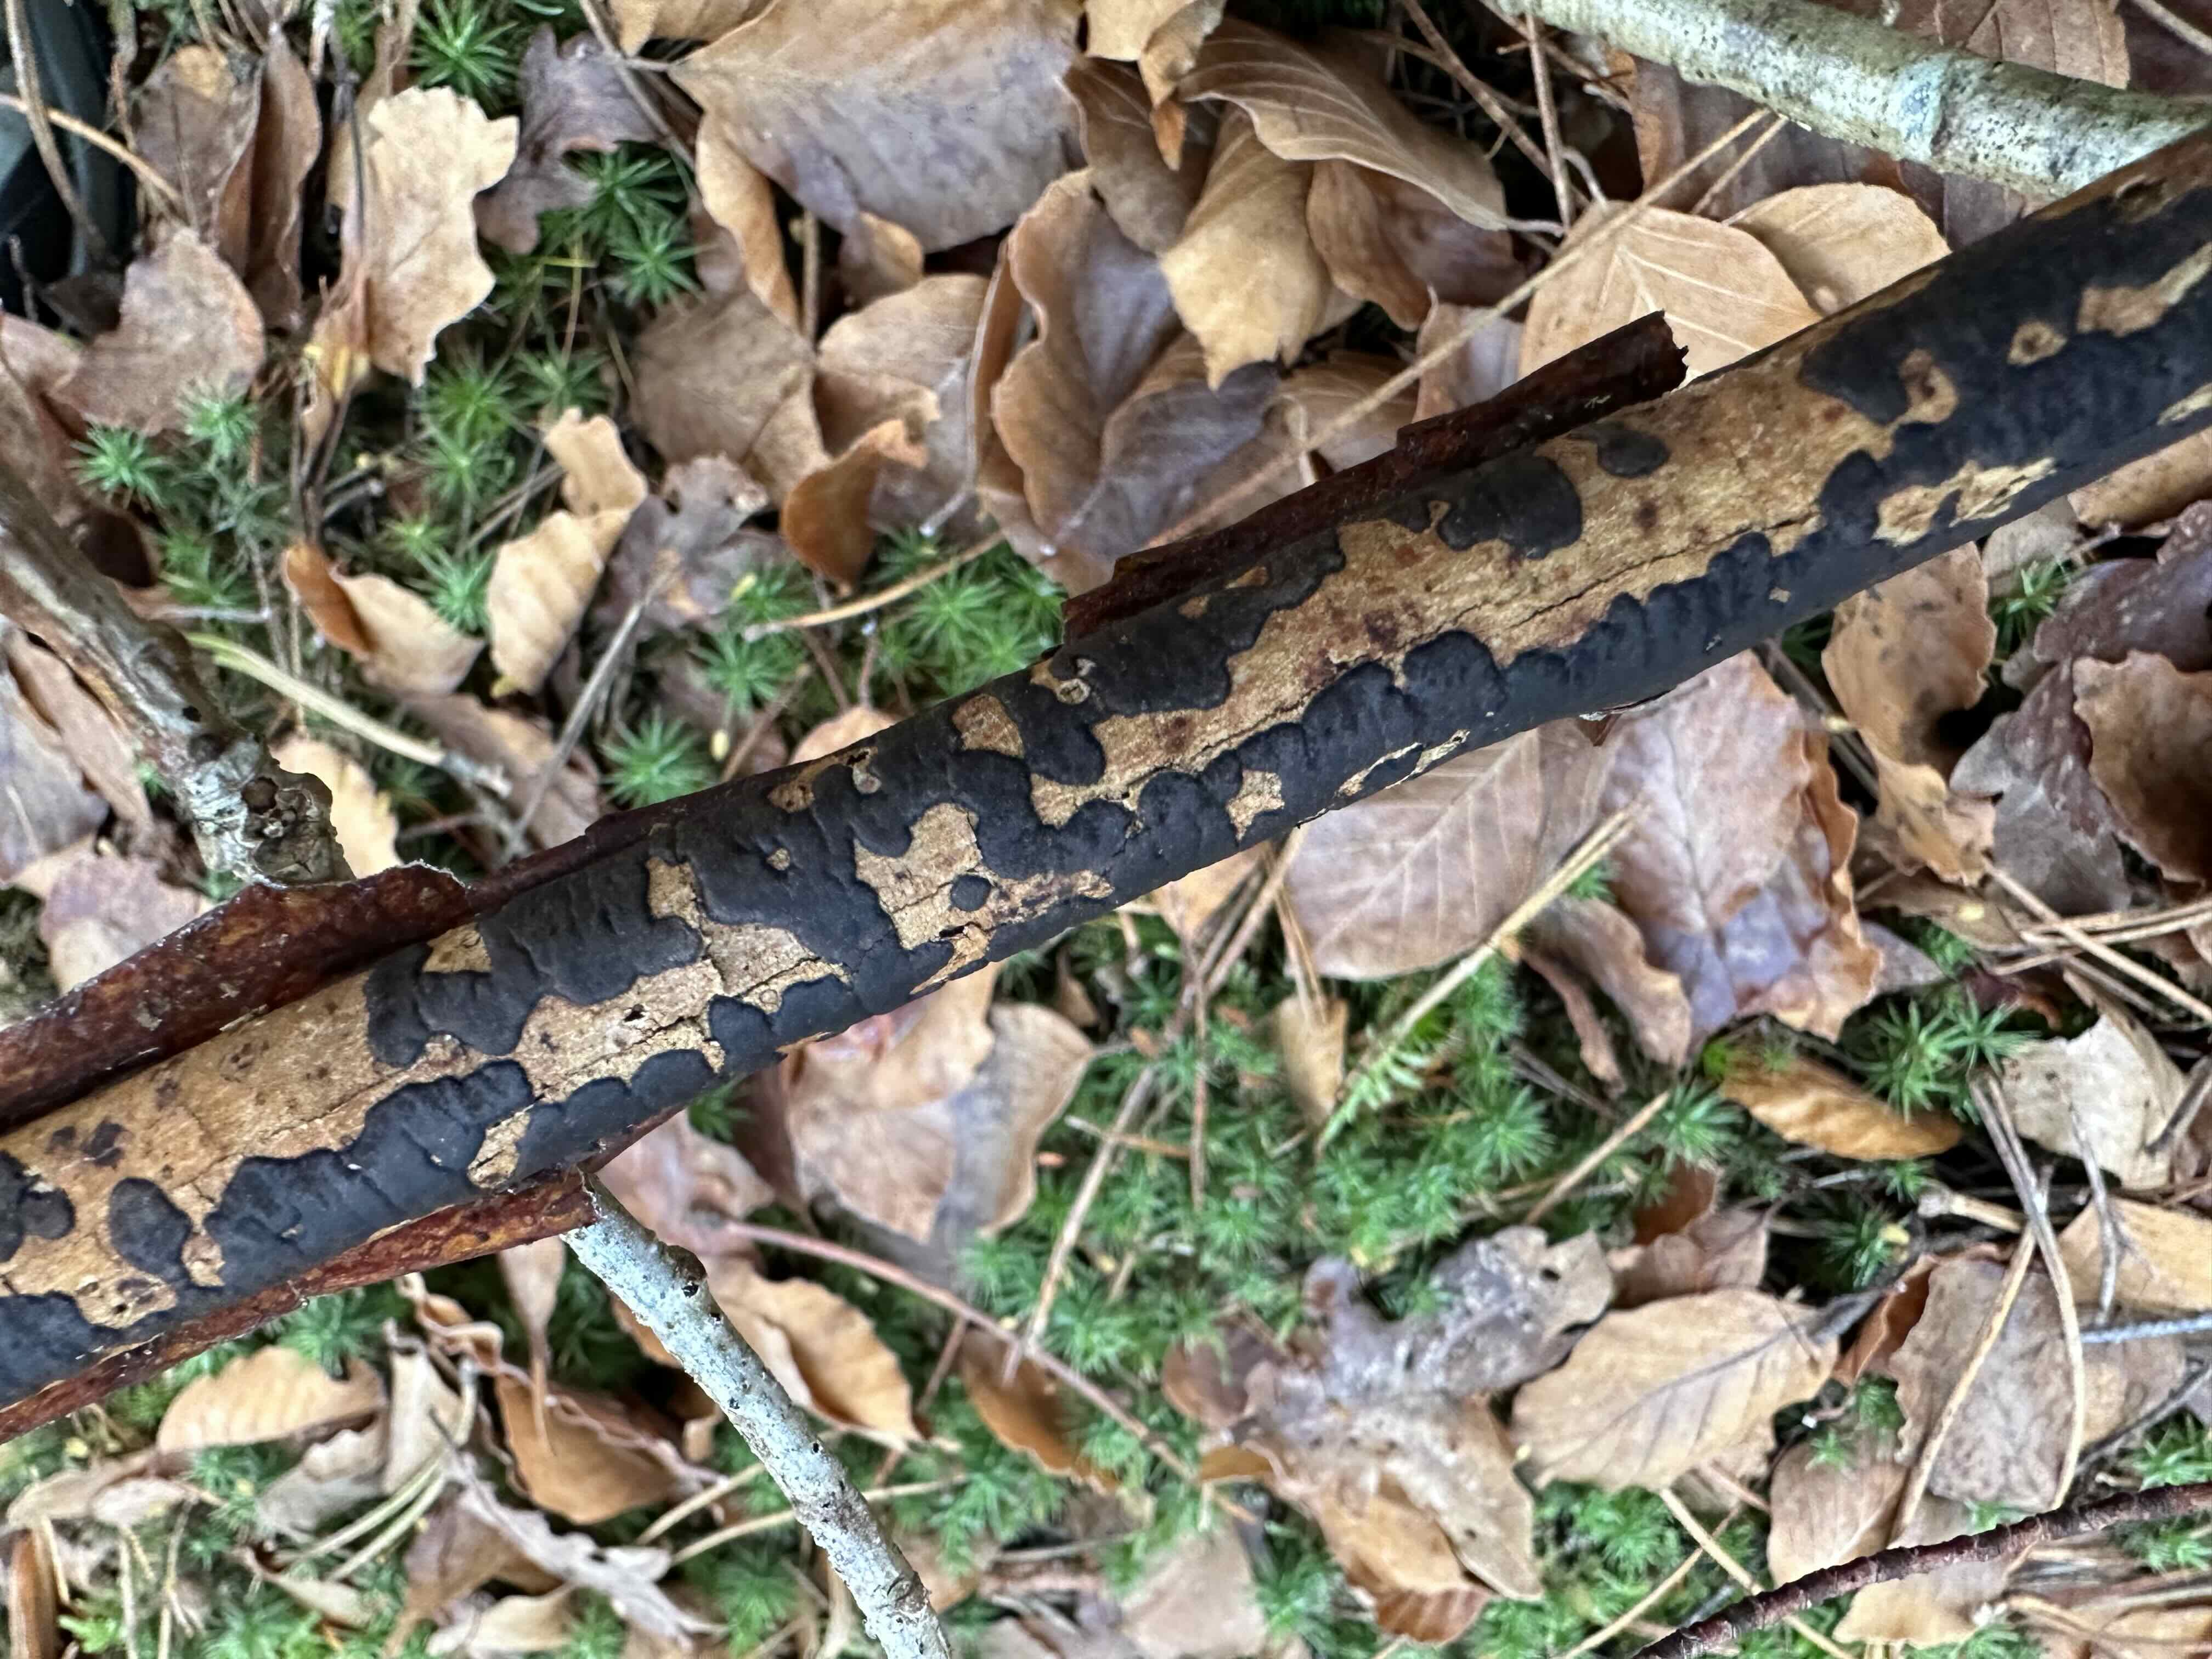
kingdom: Fungi
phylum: Ascomycota
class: Sordariomycetes
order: Xylariales
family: Diatrypaceae
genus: Diatrype
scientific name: Diatrype decorticata
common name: barksprænger-kulskorpe
